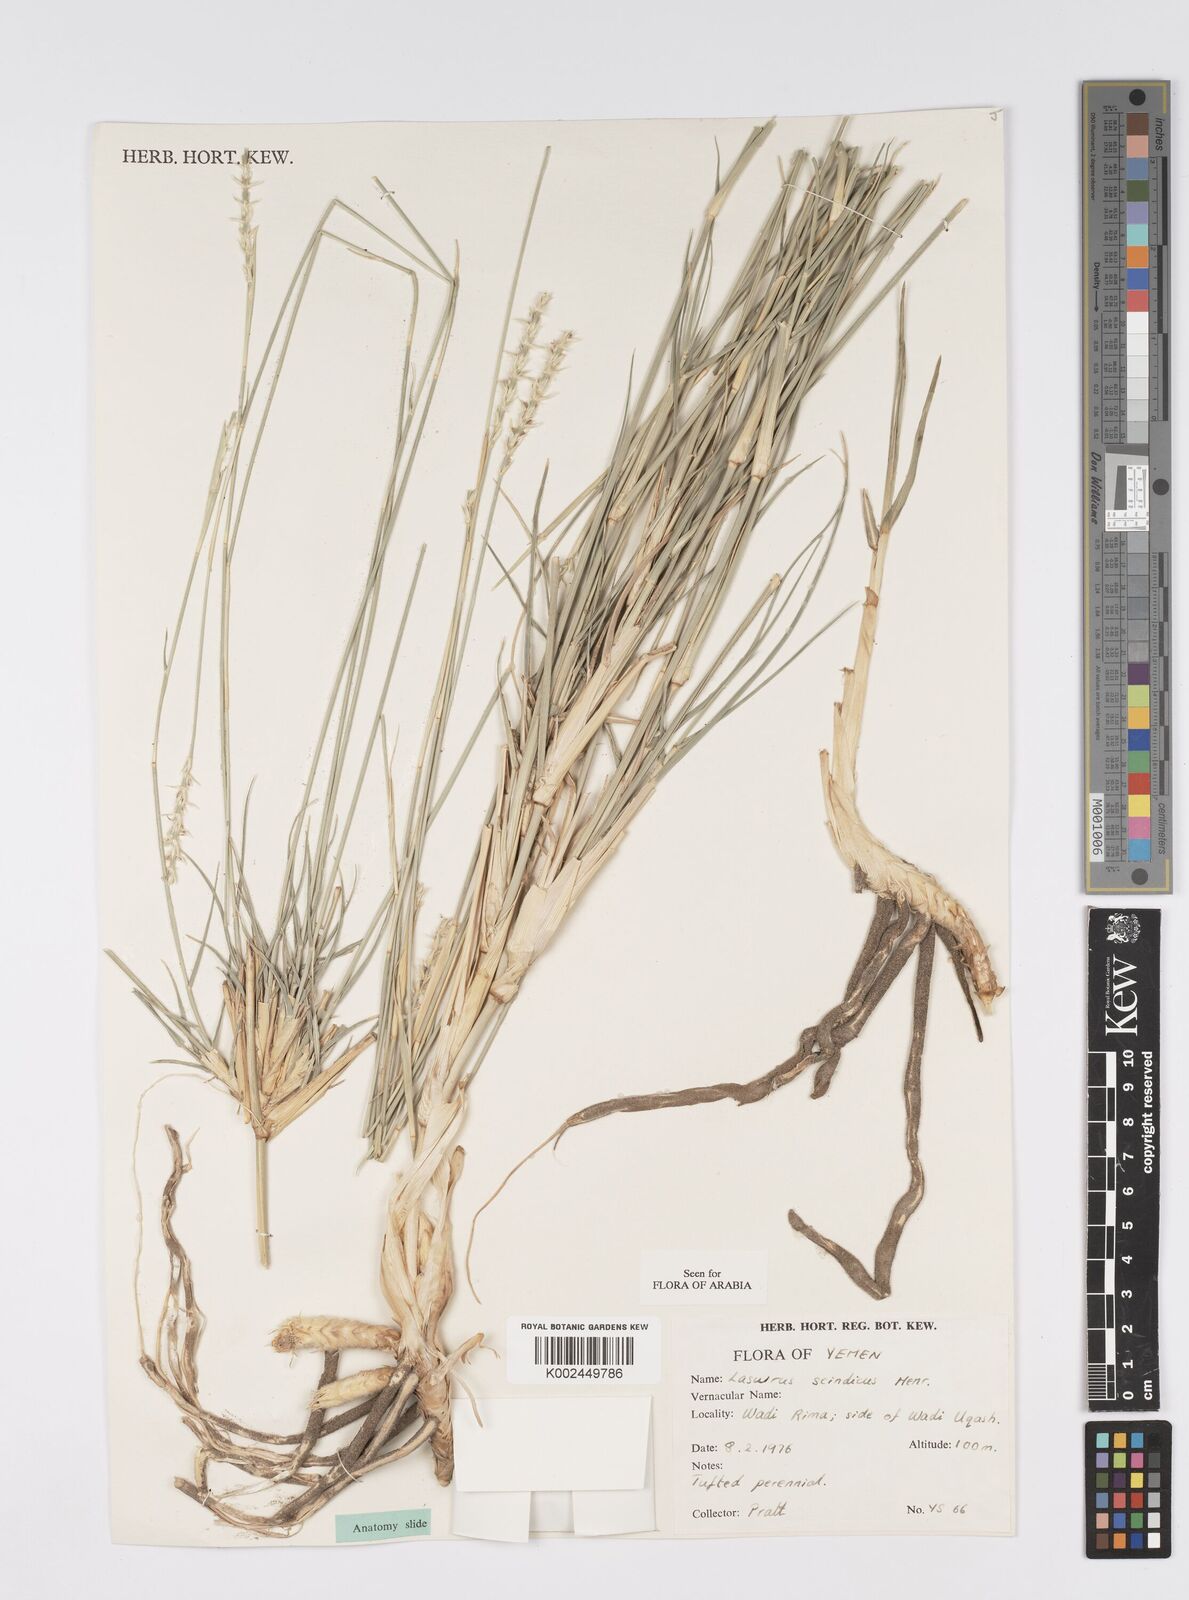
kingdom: Plantae
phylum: Tracheophyta
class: Liliopsida
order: Poales
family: Poaceae
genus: Lasiurus
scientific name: Lasiurus scindicus
